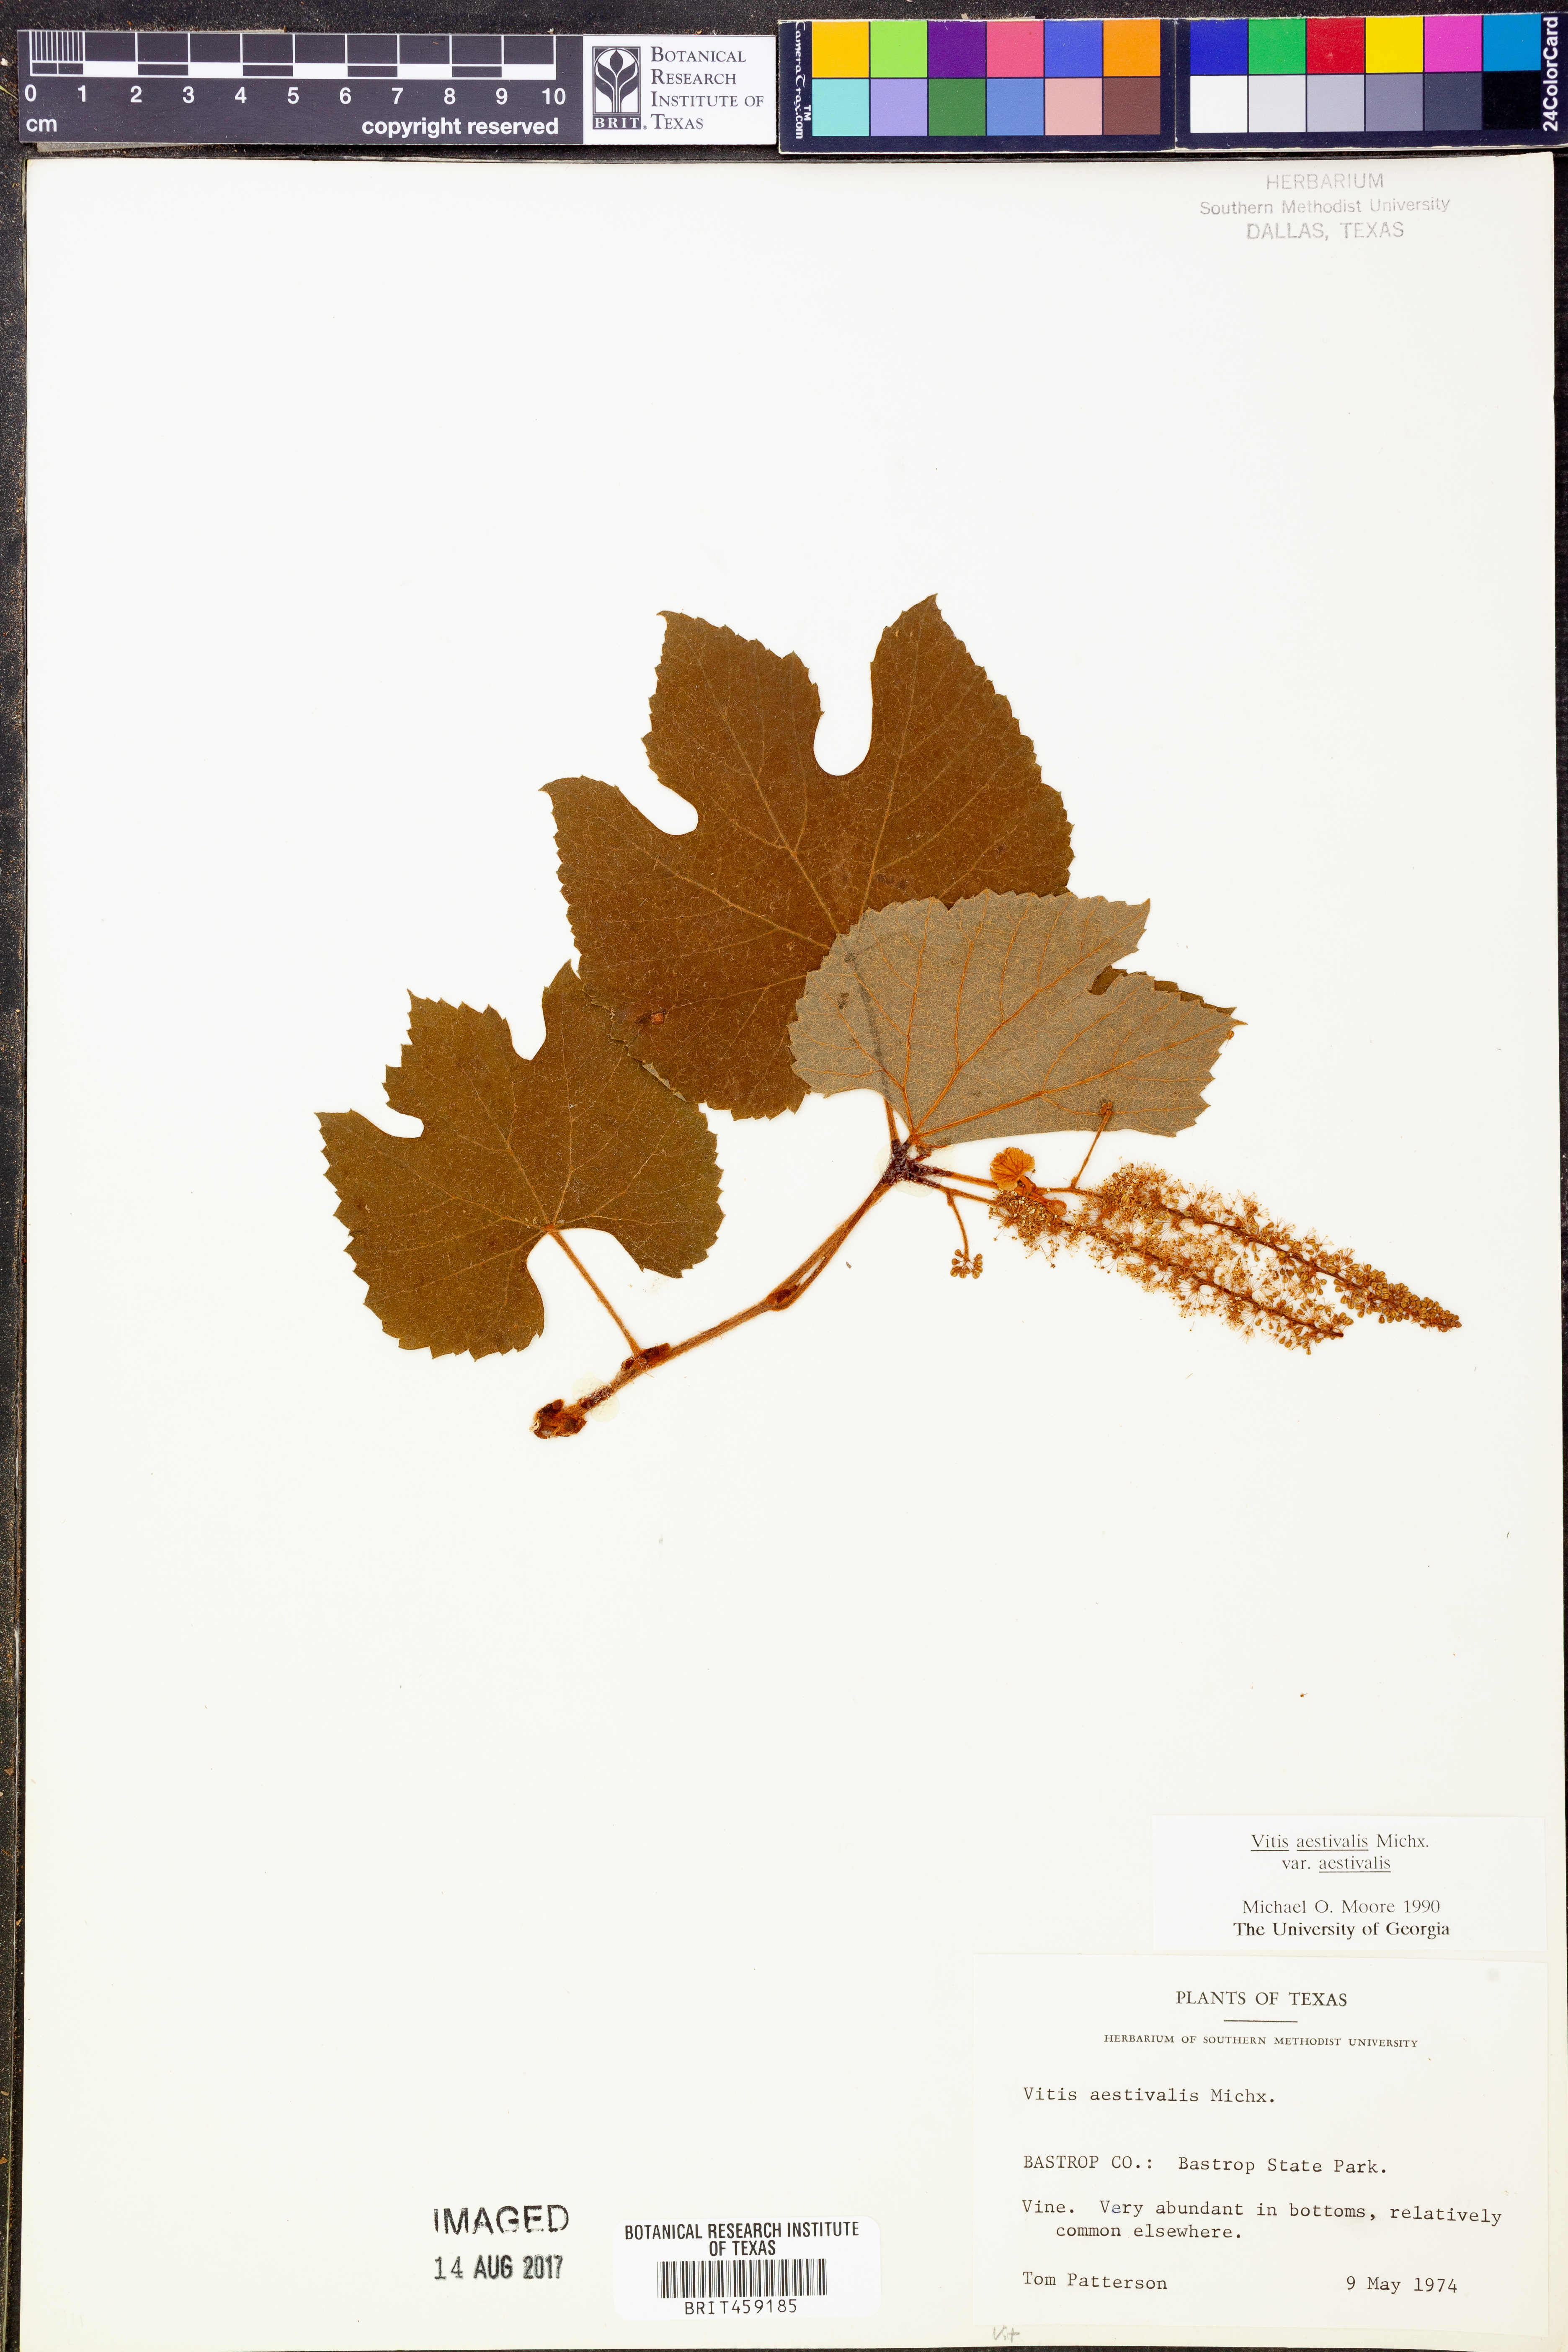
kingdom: Plantae
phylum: Tracheophyta
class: Magnoliopsida
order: Vitales
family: Vitaceae
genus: Vitis
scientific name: Vitis aestivalis
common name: Pigeon grape
